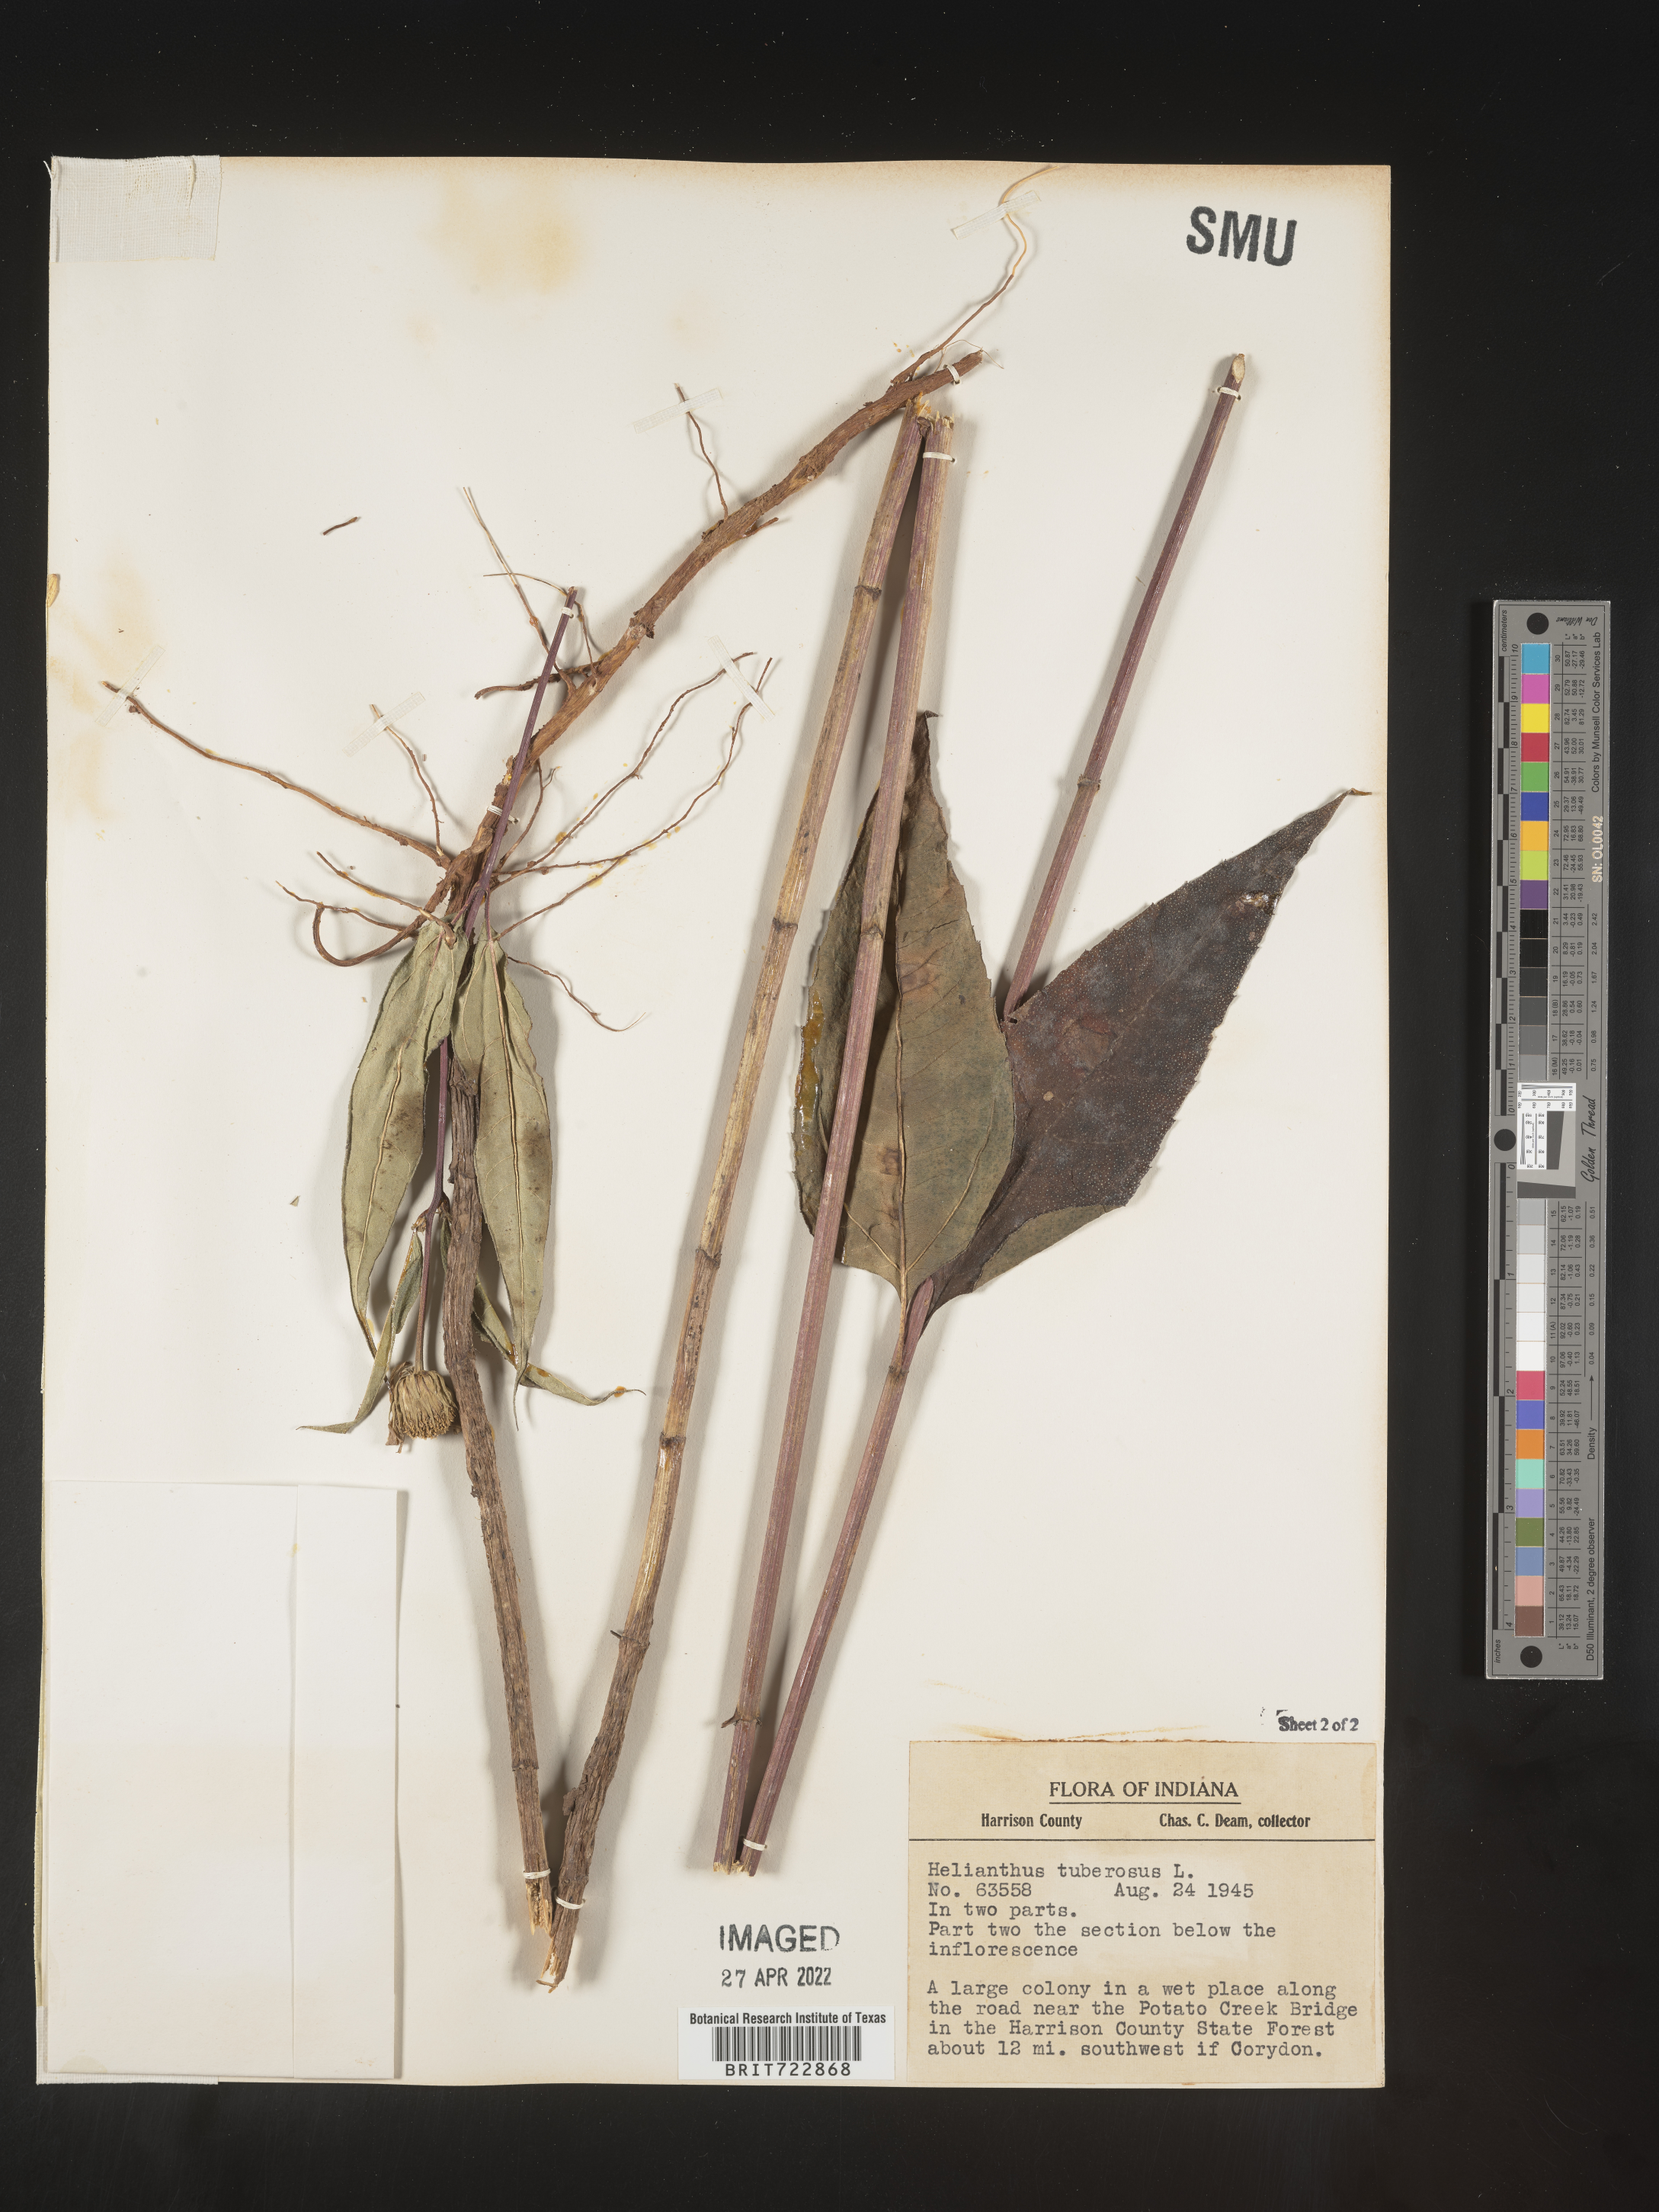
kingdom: Plantae
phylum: Tracheophyta
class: Magnoliopsida
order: Asterales
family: Asteraceae
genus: Helianthus
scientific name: Helianthus tuberosus
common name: Jerusalem artichoke
